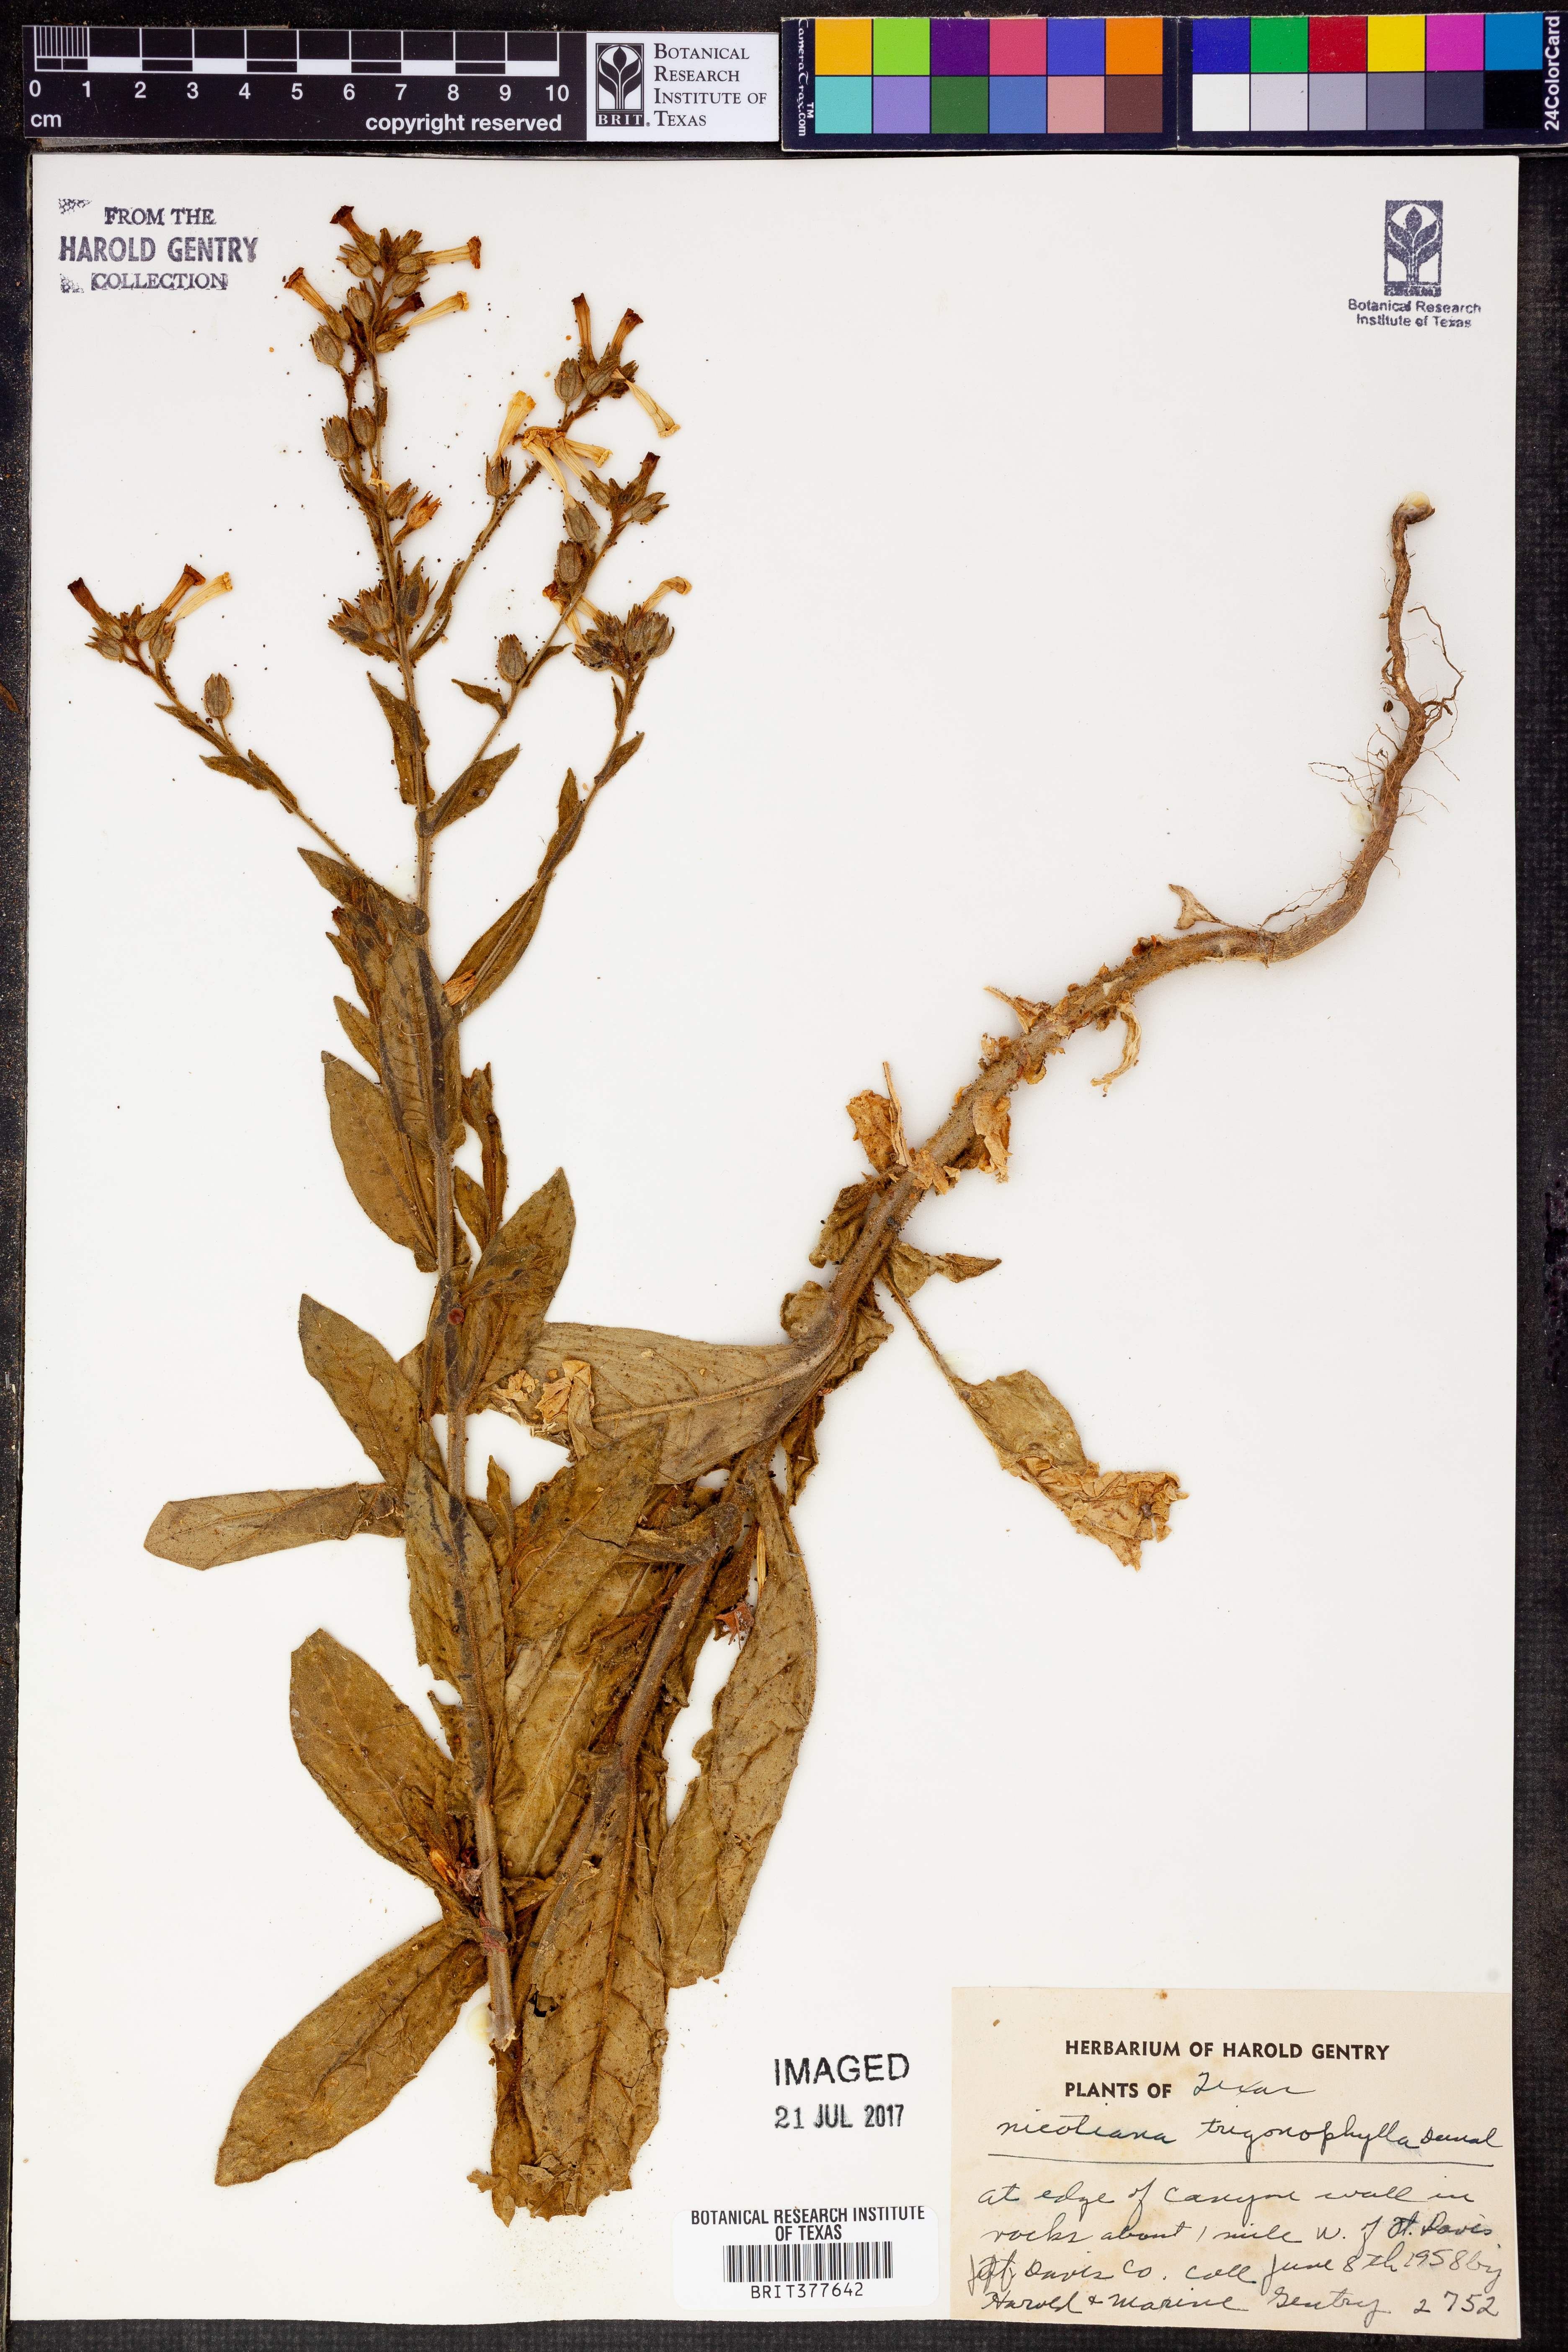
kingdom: Plantae
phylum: Tracheophyta
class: Magnoliopsida
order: Solanales
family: Solanaceae
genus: Nicotiana
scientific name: Nicotiana obtusifolia
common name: Desert tobacco
